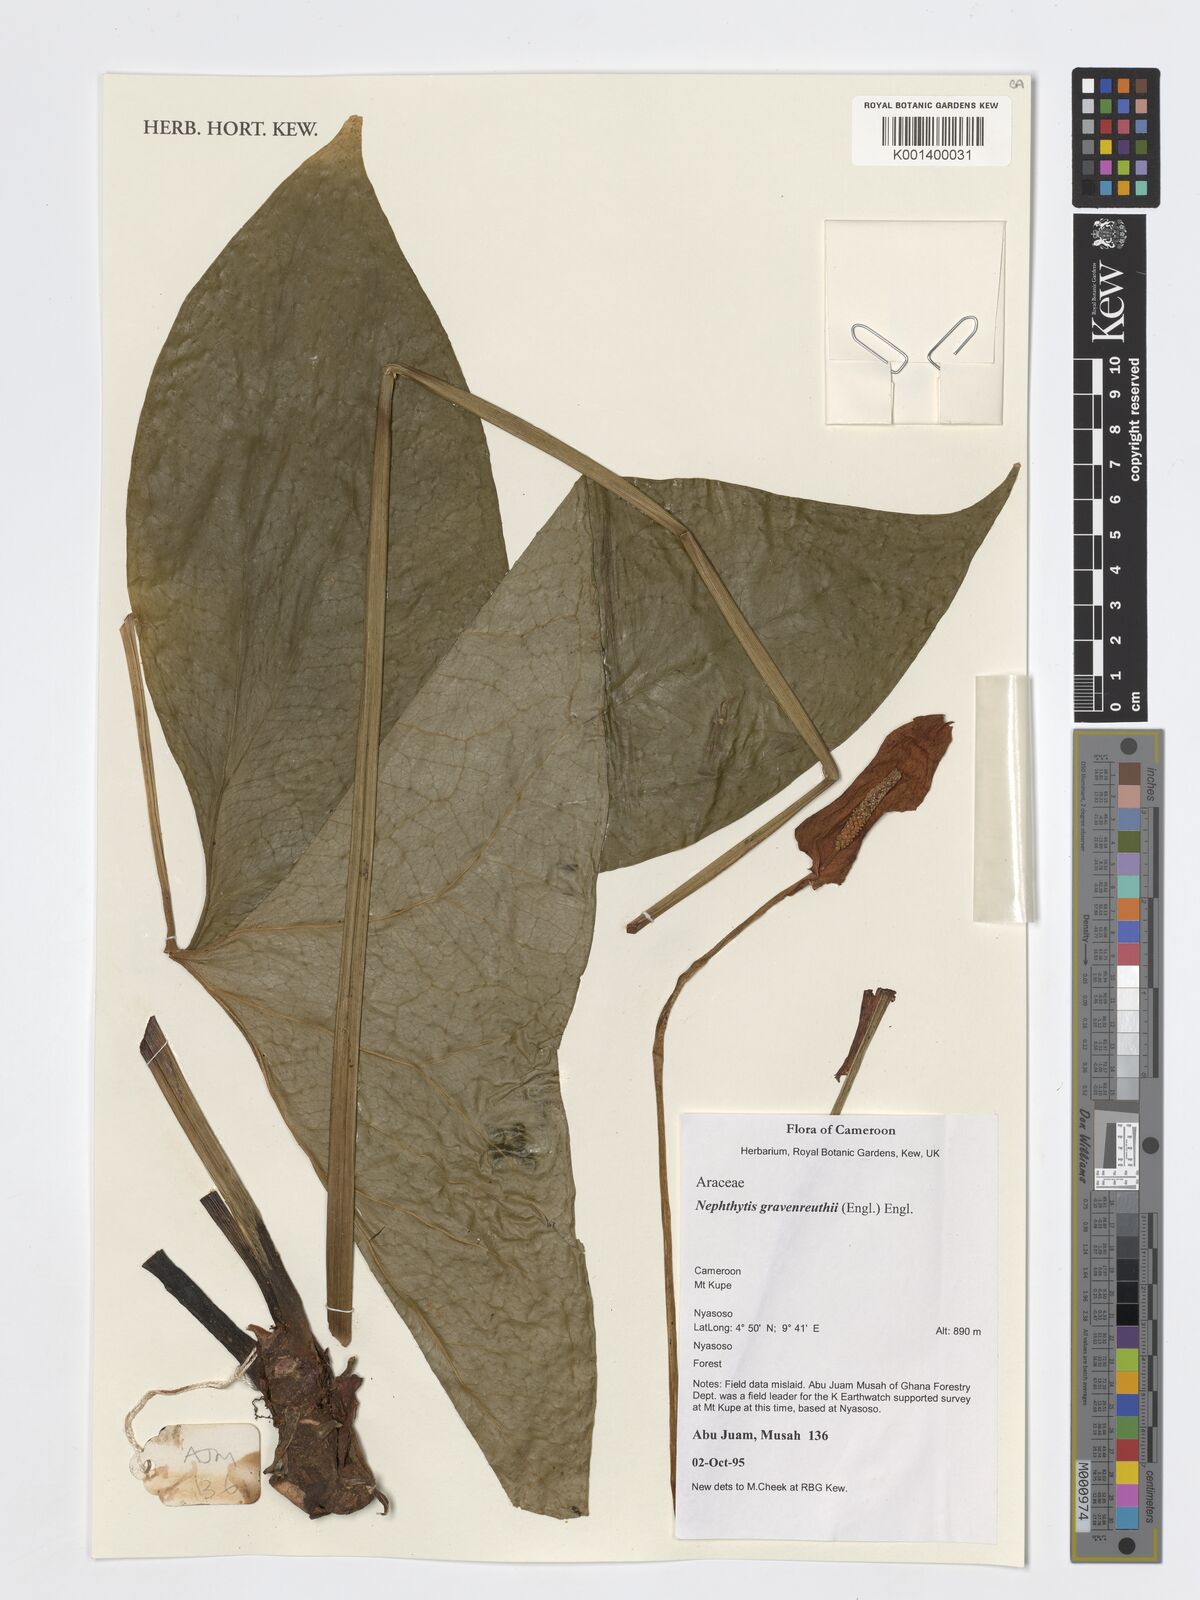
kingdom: Plantae
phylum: Tracheophyta
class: Liliopsida
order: Alismatales
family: Araceae
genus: Nephthytis
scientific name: Nephthytis poissonii
